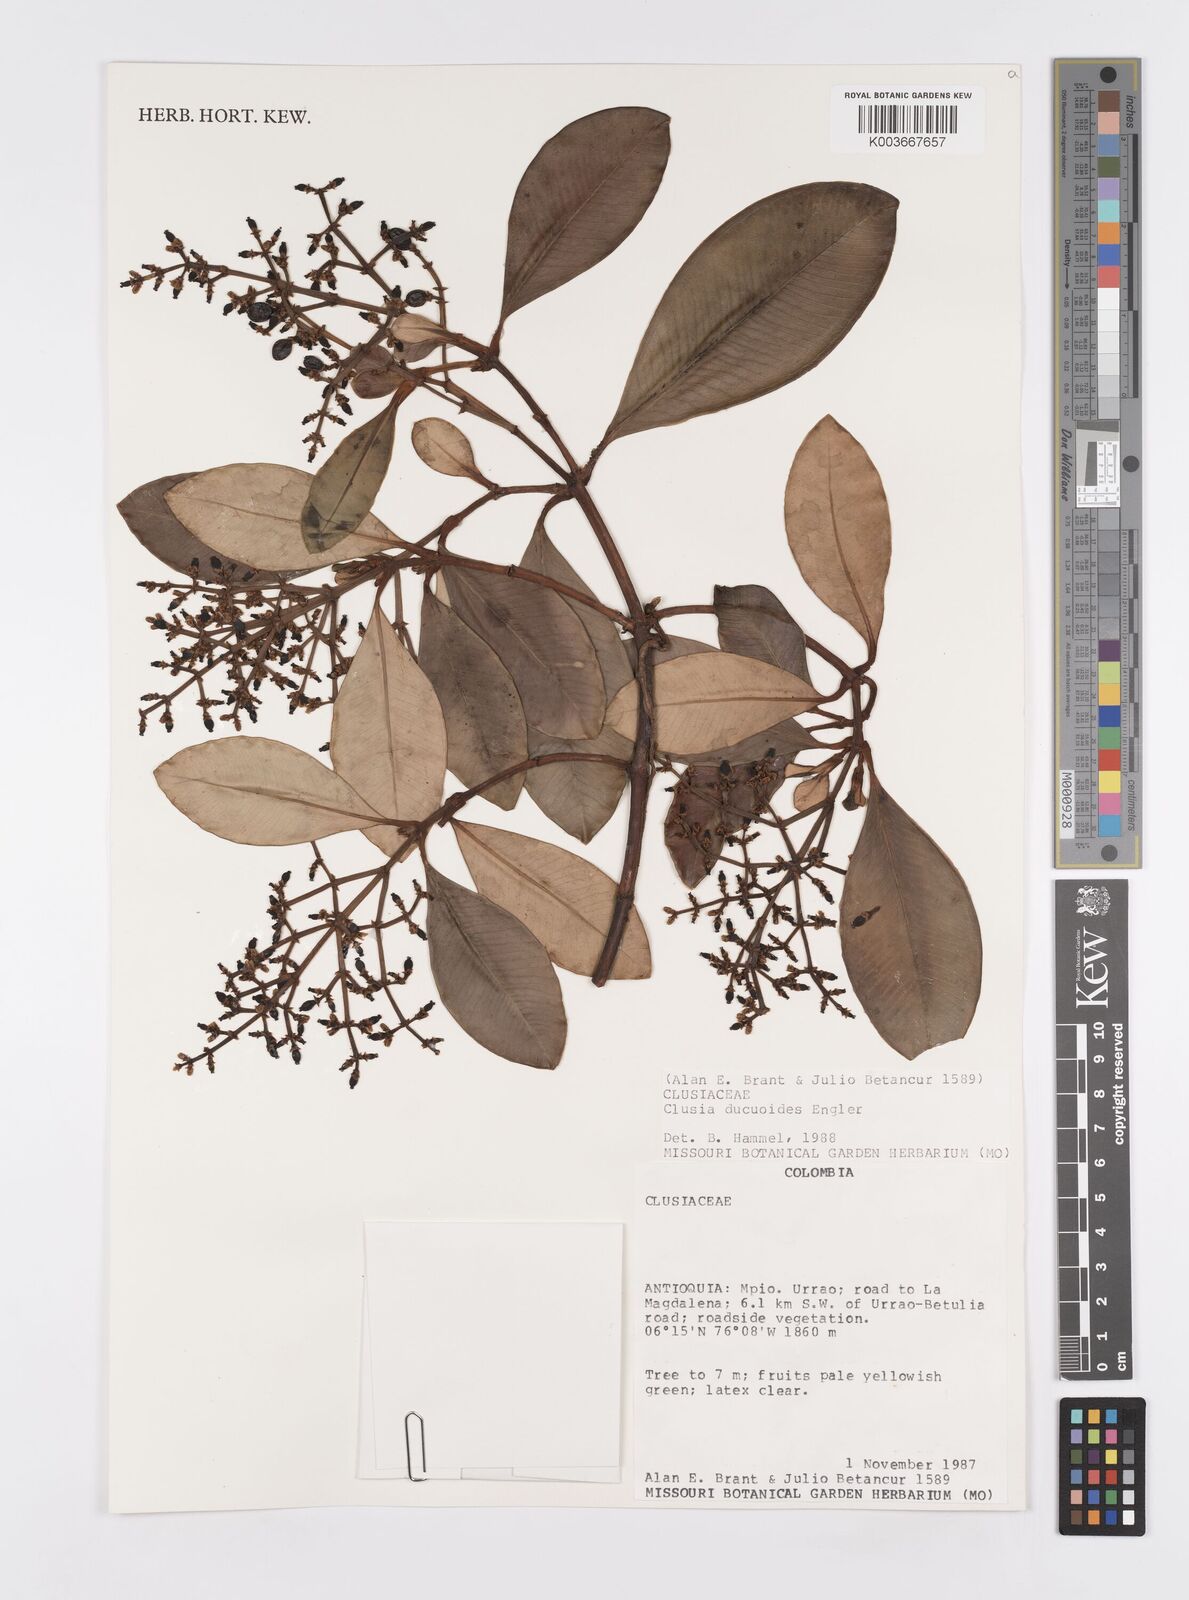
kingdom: Plantae
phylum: Tracheophyta
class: Magnoliopsida
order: Malpighiales
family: Clusiaceae
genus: Clusia
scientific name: Clusia ducuoides
